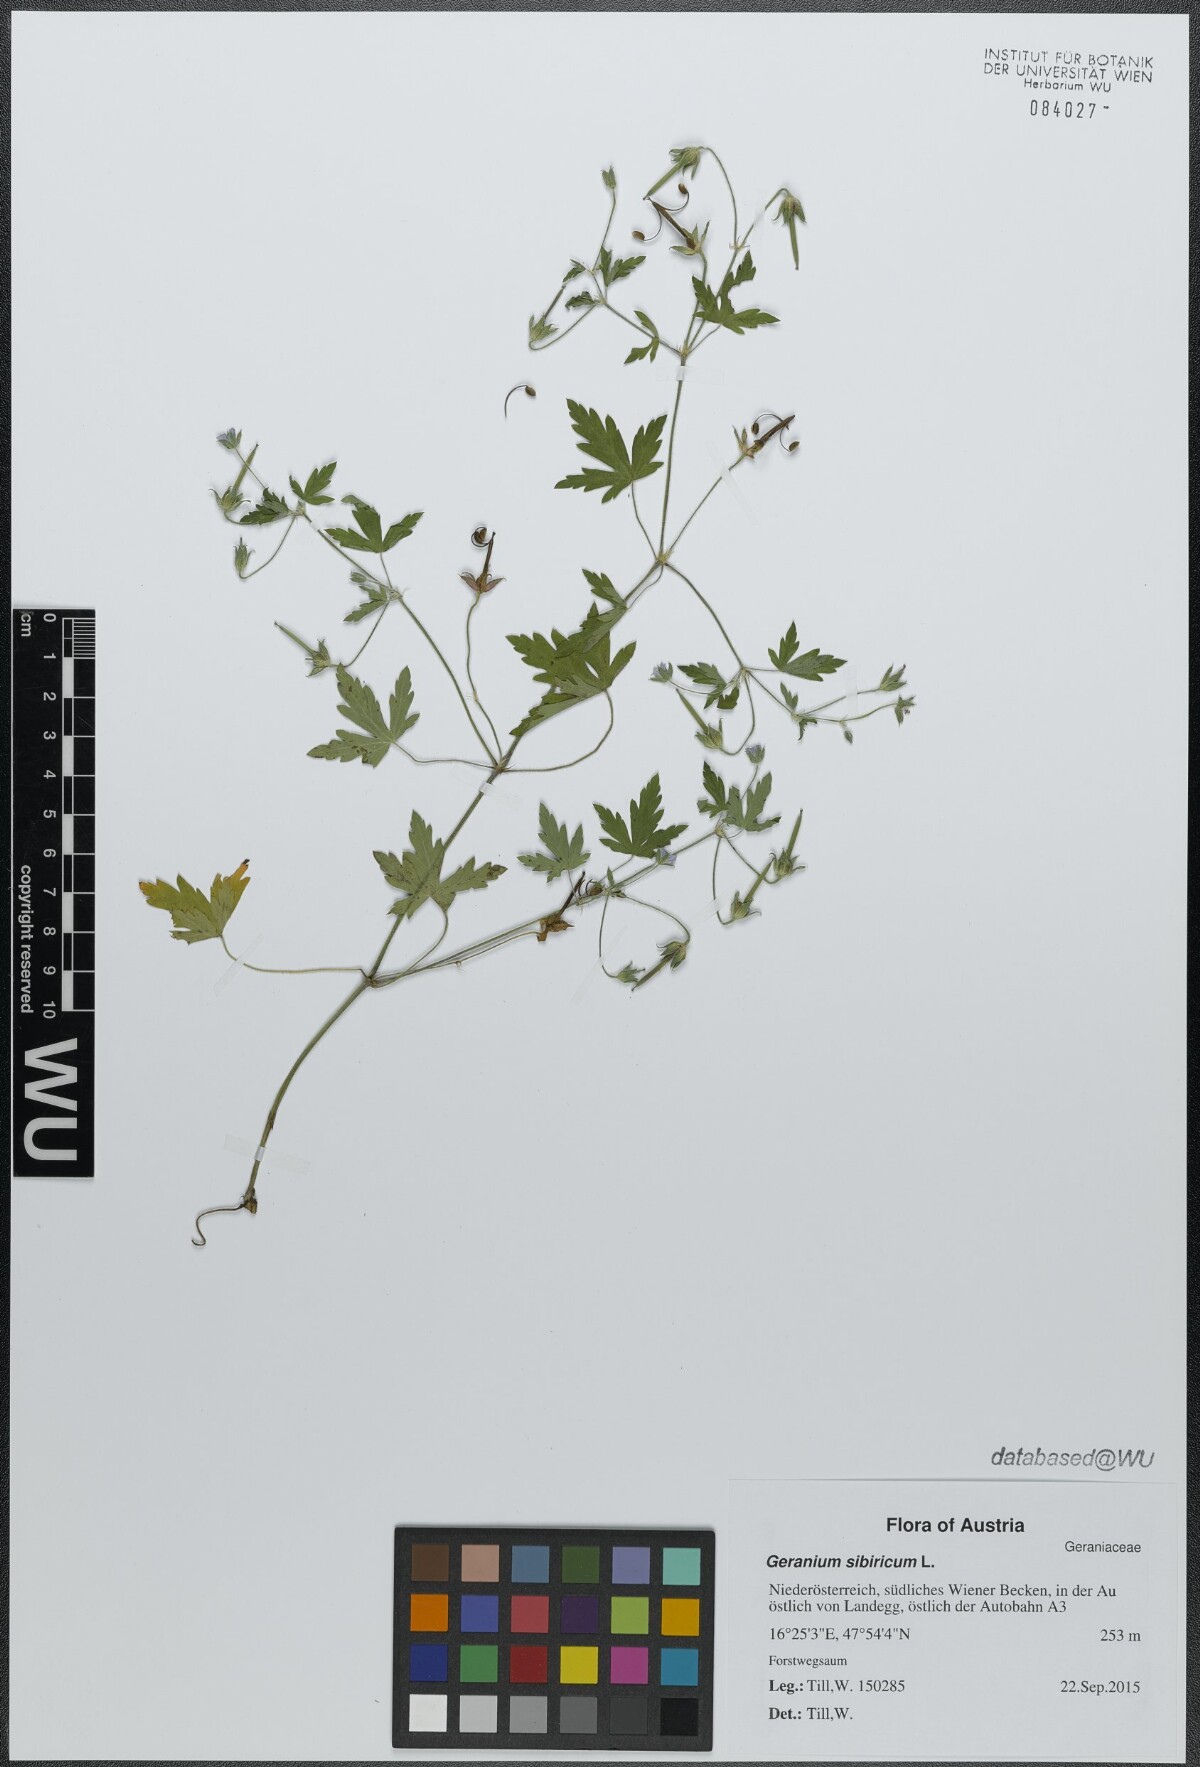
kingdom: Plantae
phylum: Tracheophyta
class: Magnoliopsida
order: Geraniales
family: Geraniaceae
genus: Geranium
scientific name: Geranium sibiricum
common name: Siberian crane's-bill
